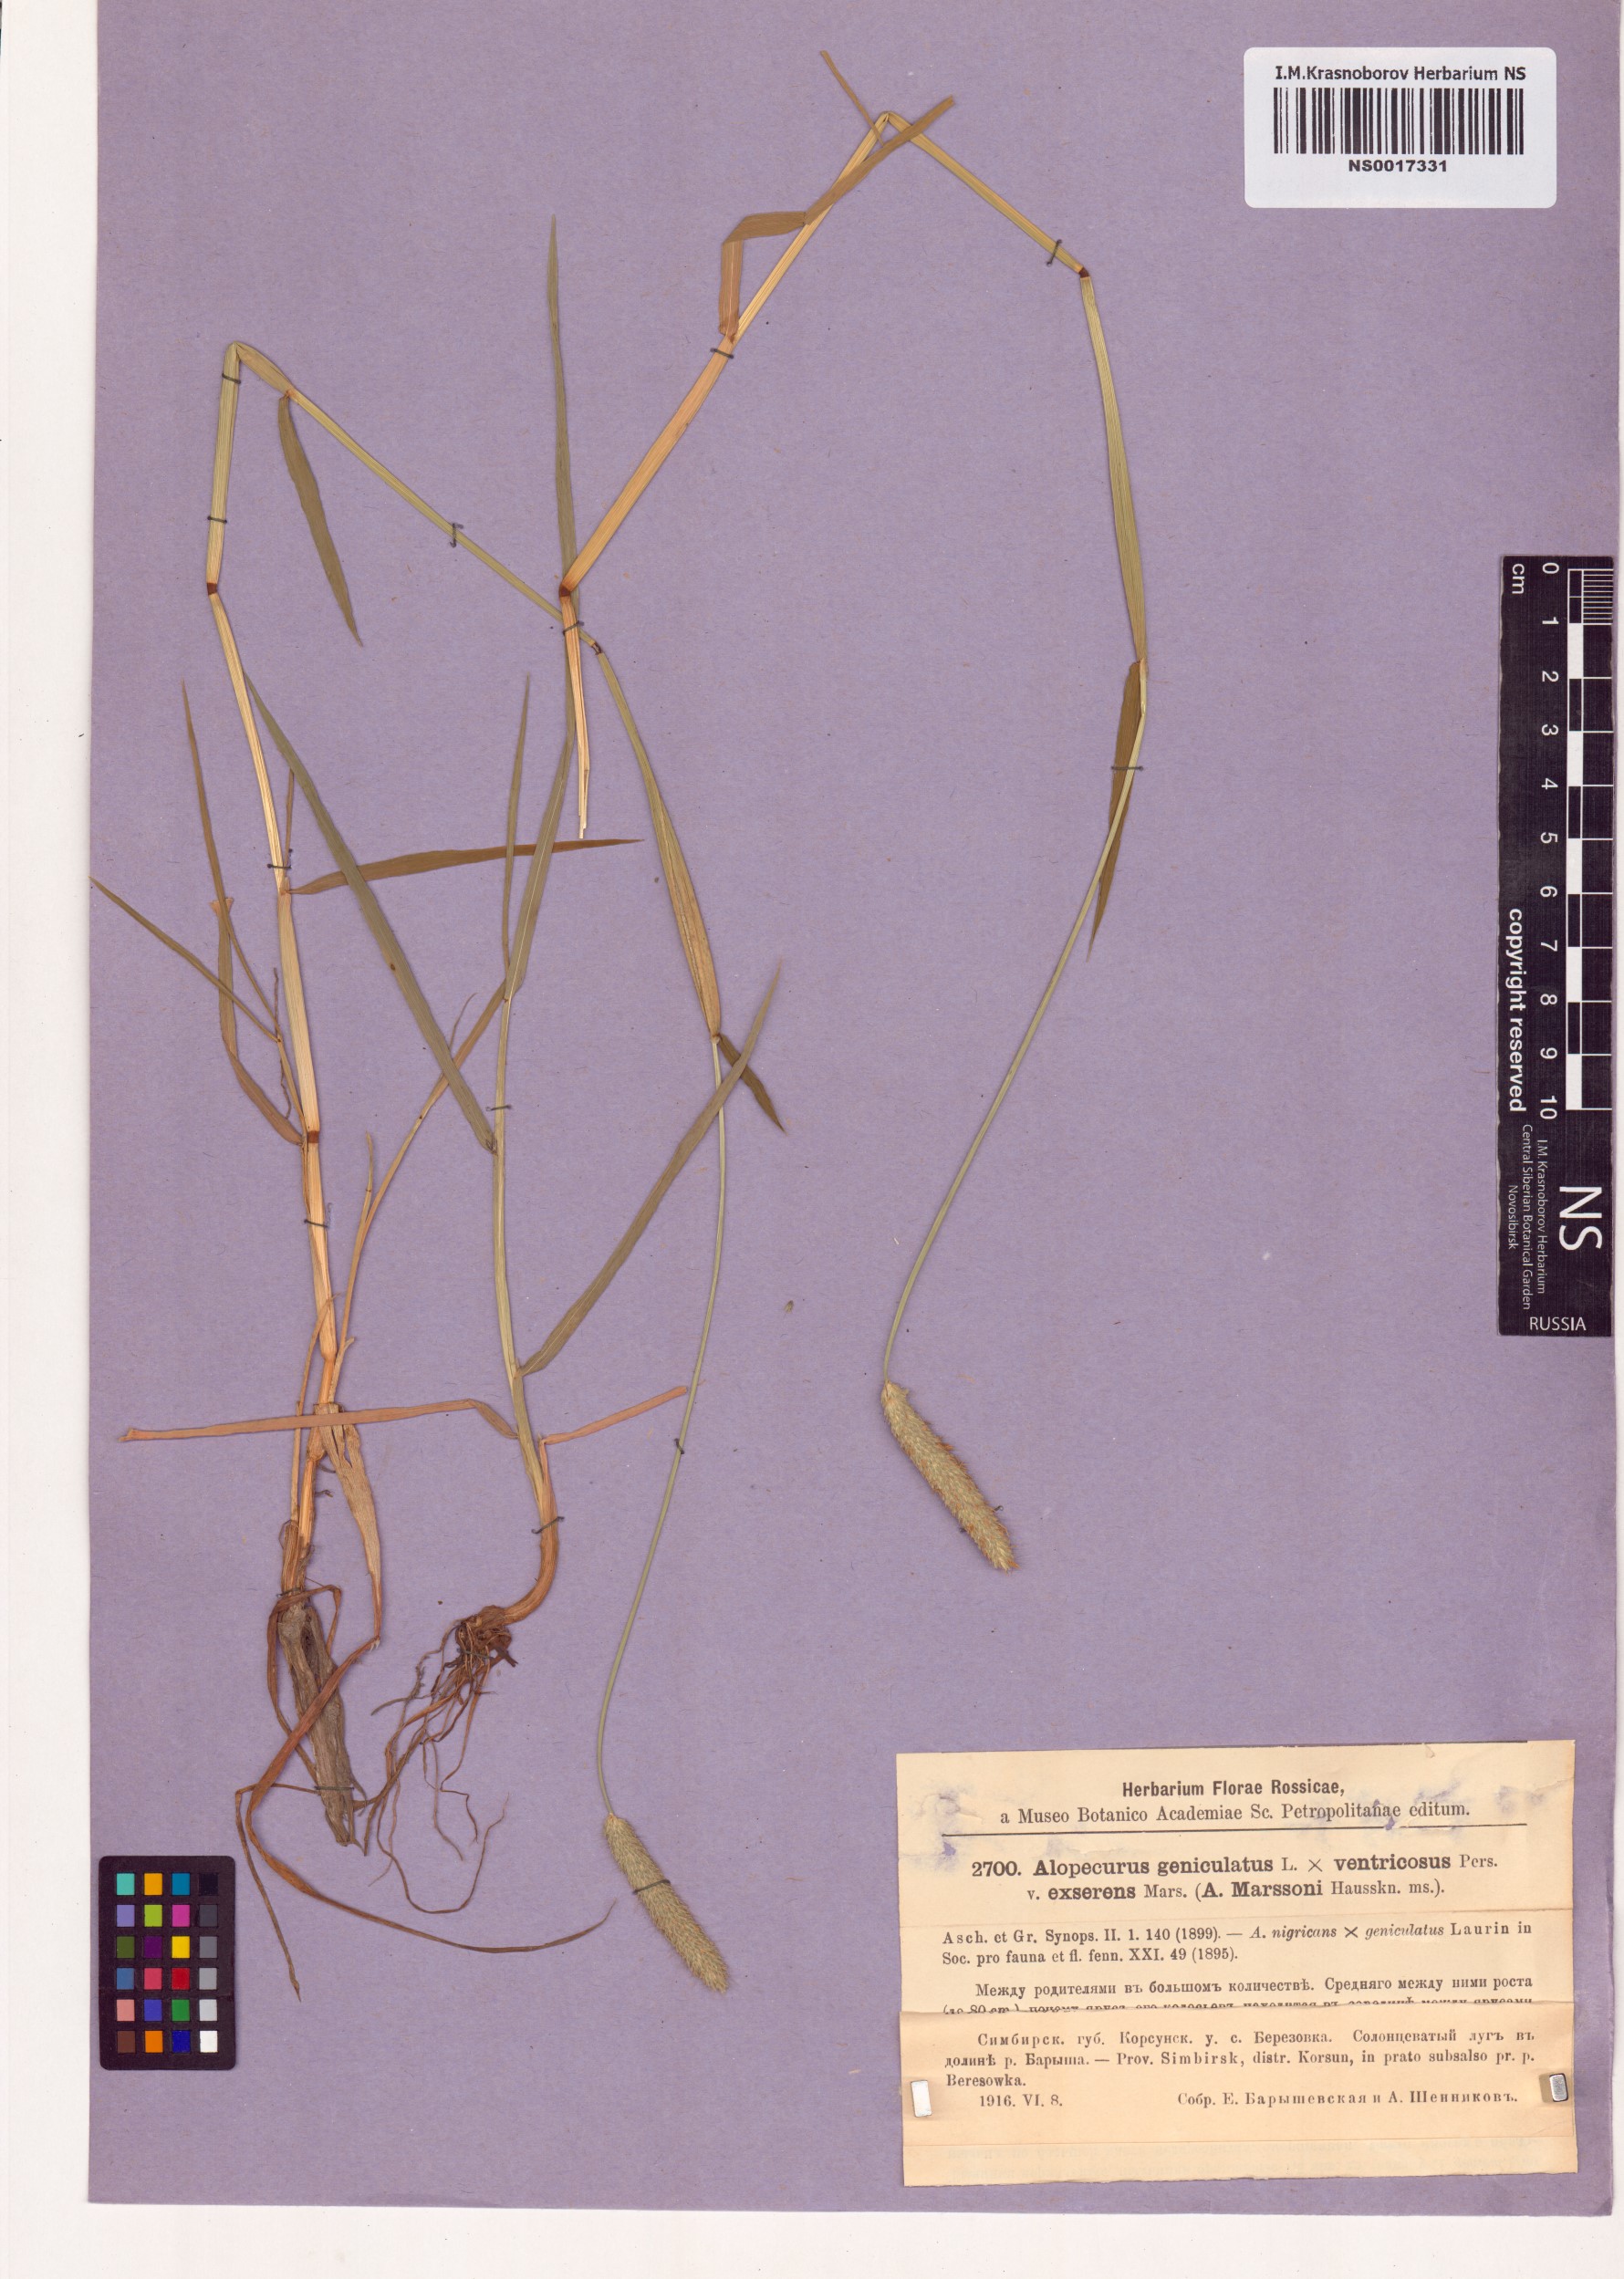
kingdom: Plantae
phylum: Tracheophyta
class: Liliopsida
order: Poales
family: Poaceae
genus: Alopecurus
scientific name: Alopecurus geniculatus
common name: Water foxtail
